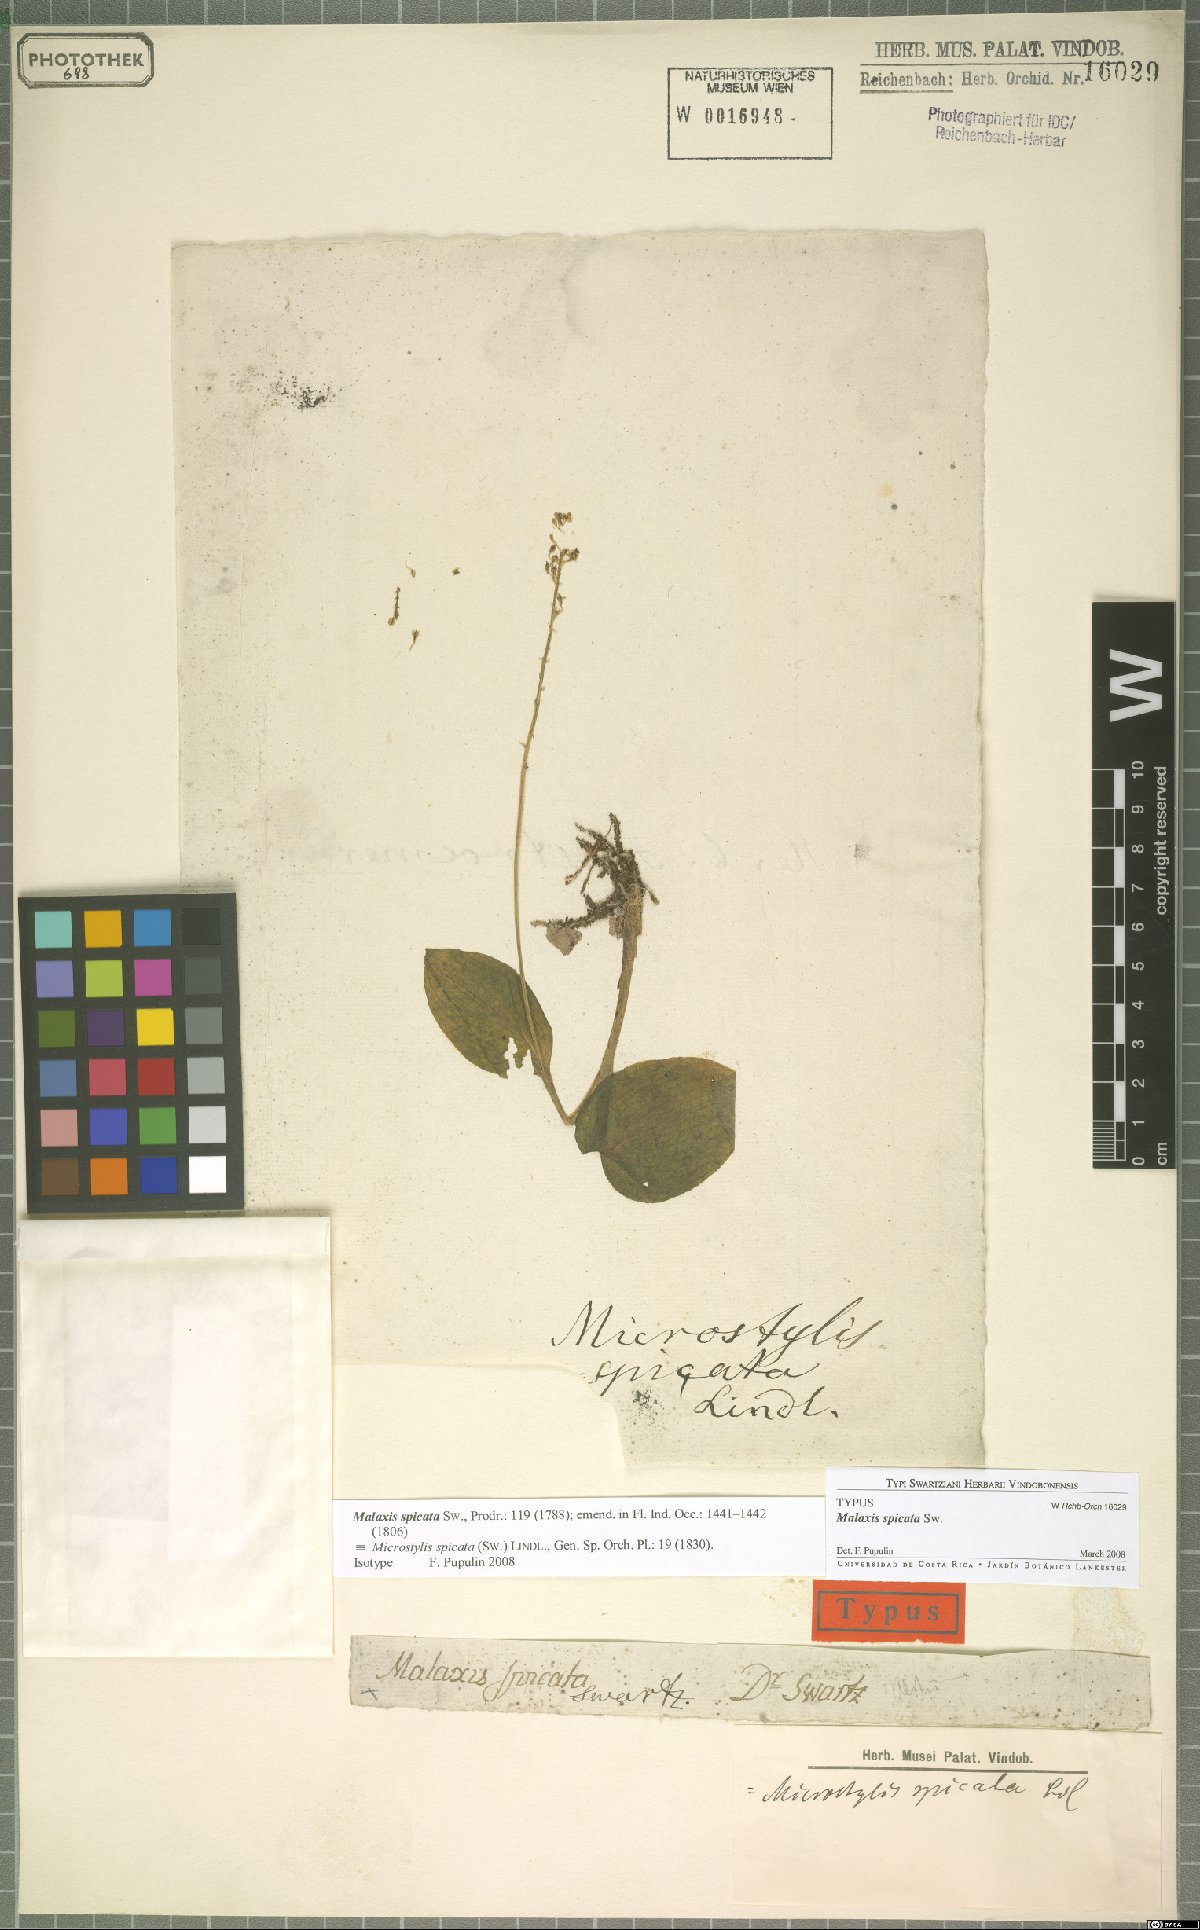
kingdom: Plantae
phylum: Tracheophyta
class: Liliopsida
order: Asparagales
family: Orchidaceae
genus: Malaxis
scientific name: Malaxis spicata
